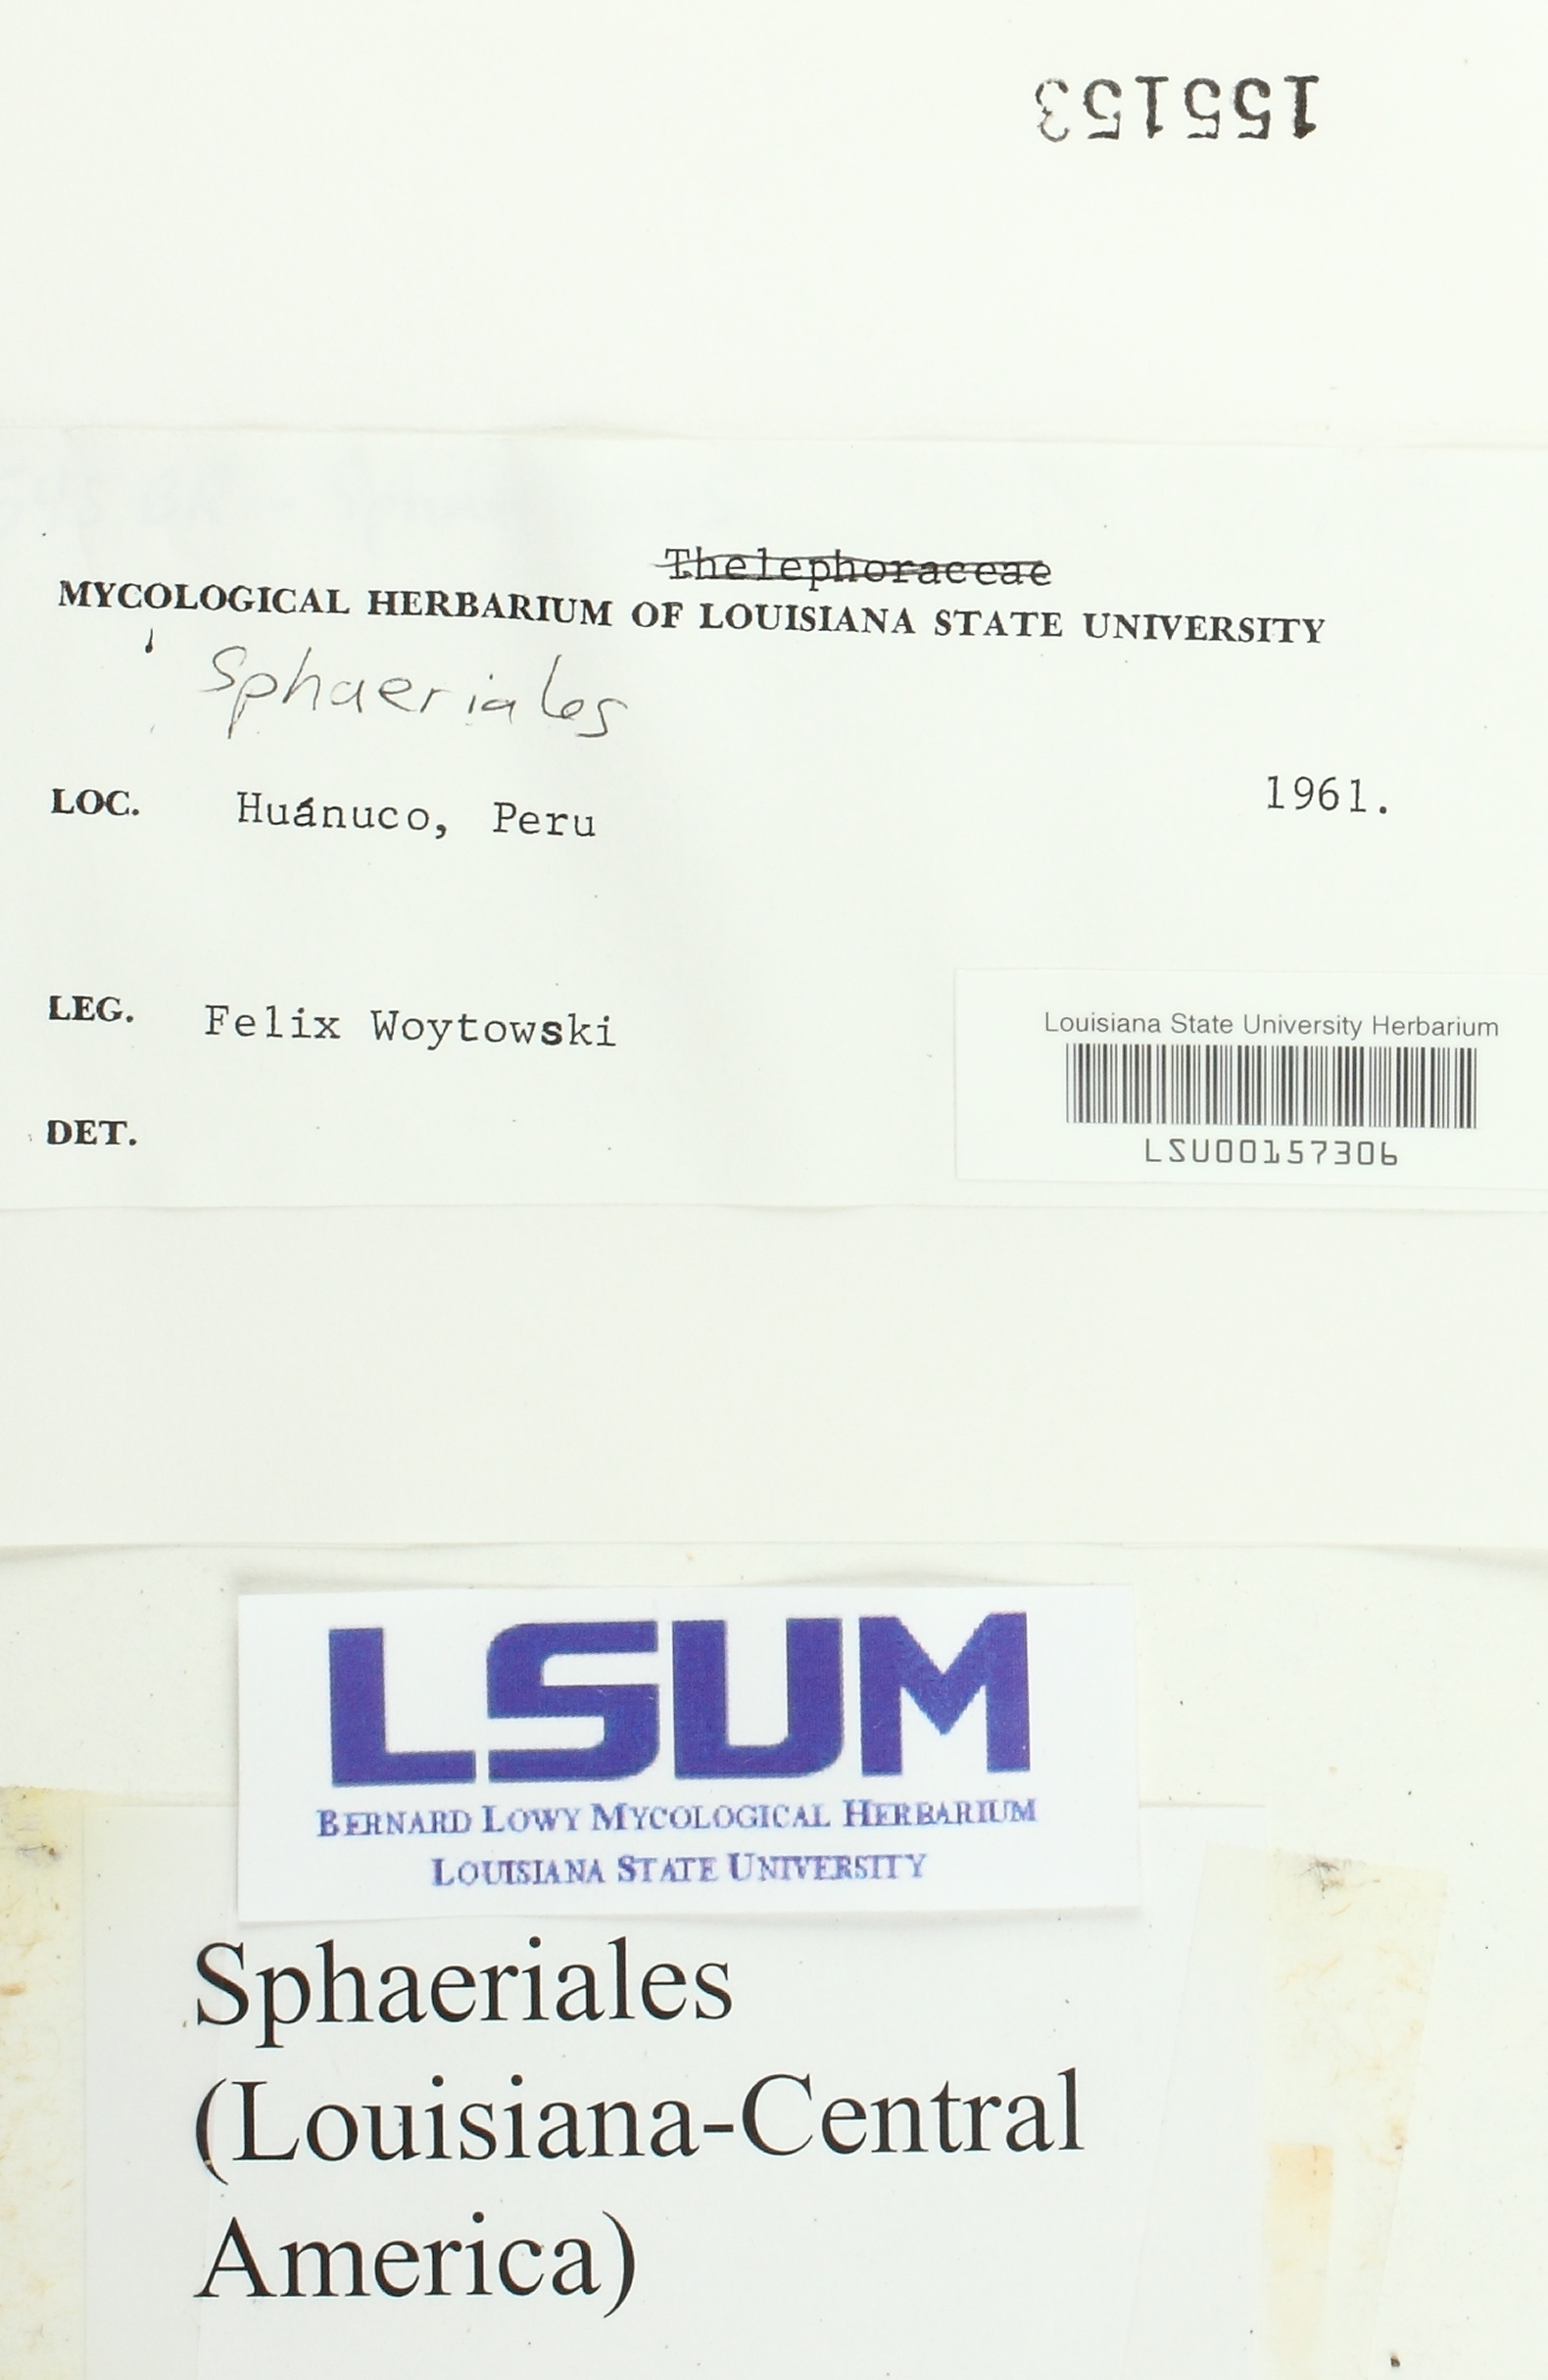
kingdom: Fungi
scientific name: Fungi
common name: Fungi
